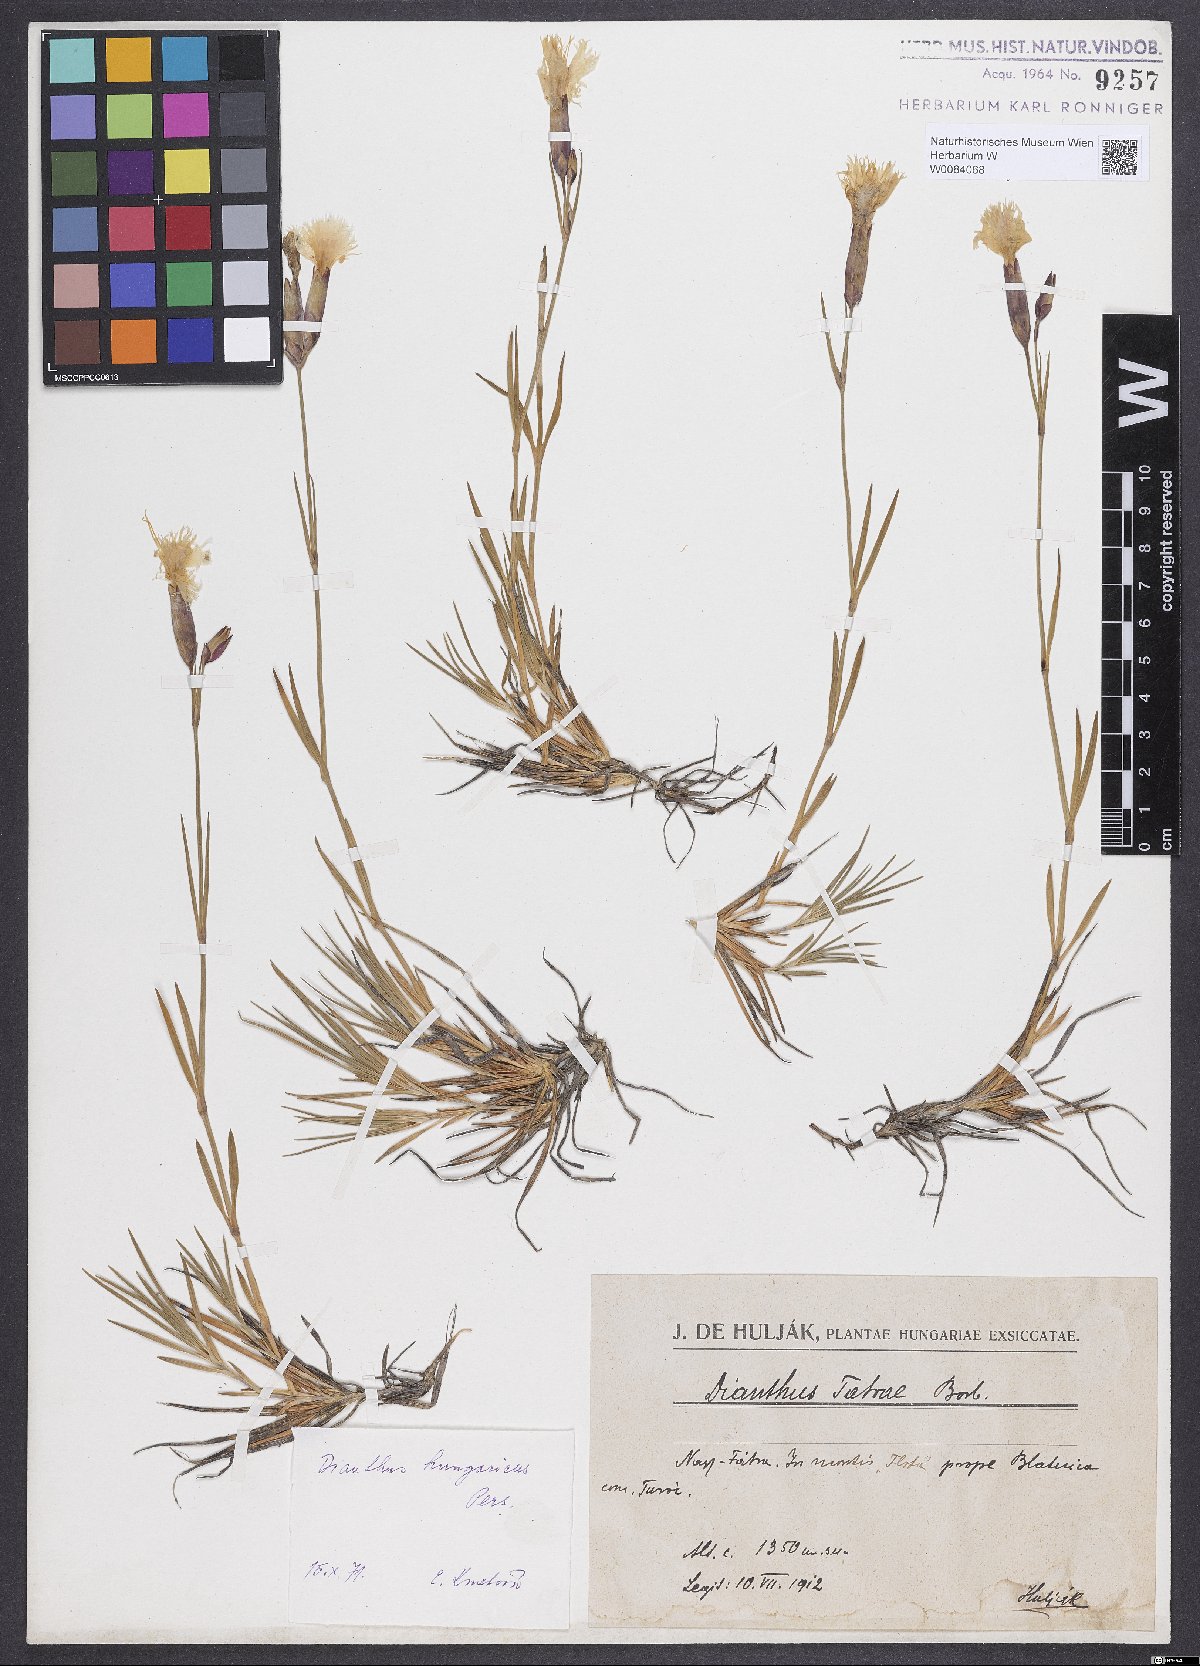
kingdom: Plantae
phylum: Tracheophyta
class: Magnoliopsida
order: Caryophyllales
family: Caryophyllaceae
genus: Dianthus
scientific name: Dianthus plumarius
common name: Pink
